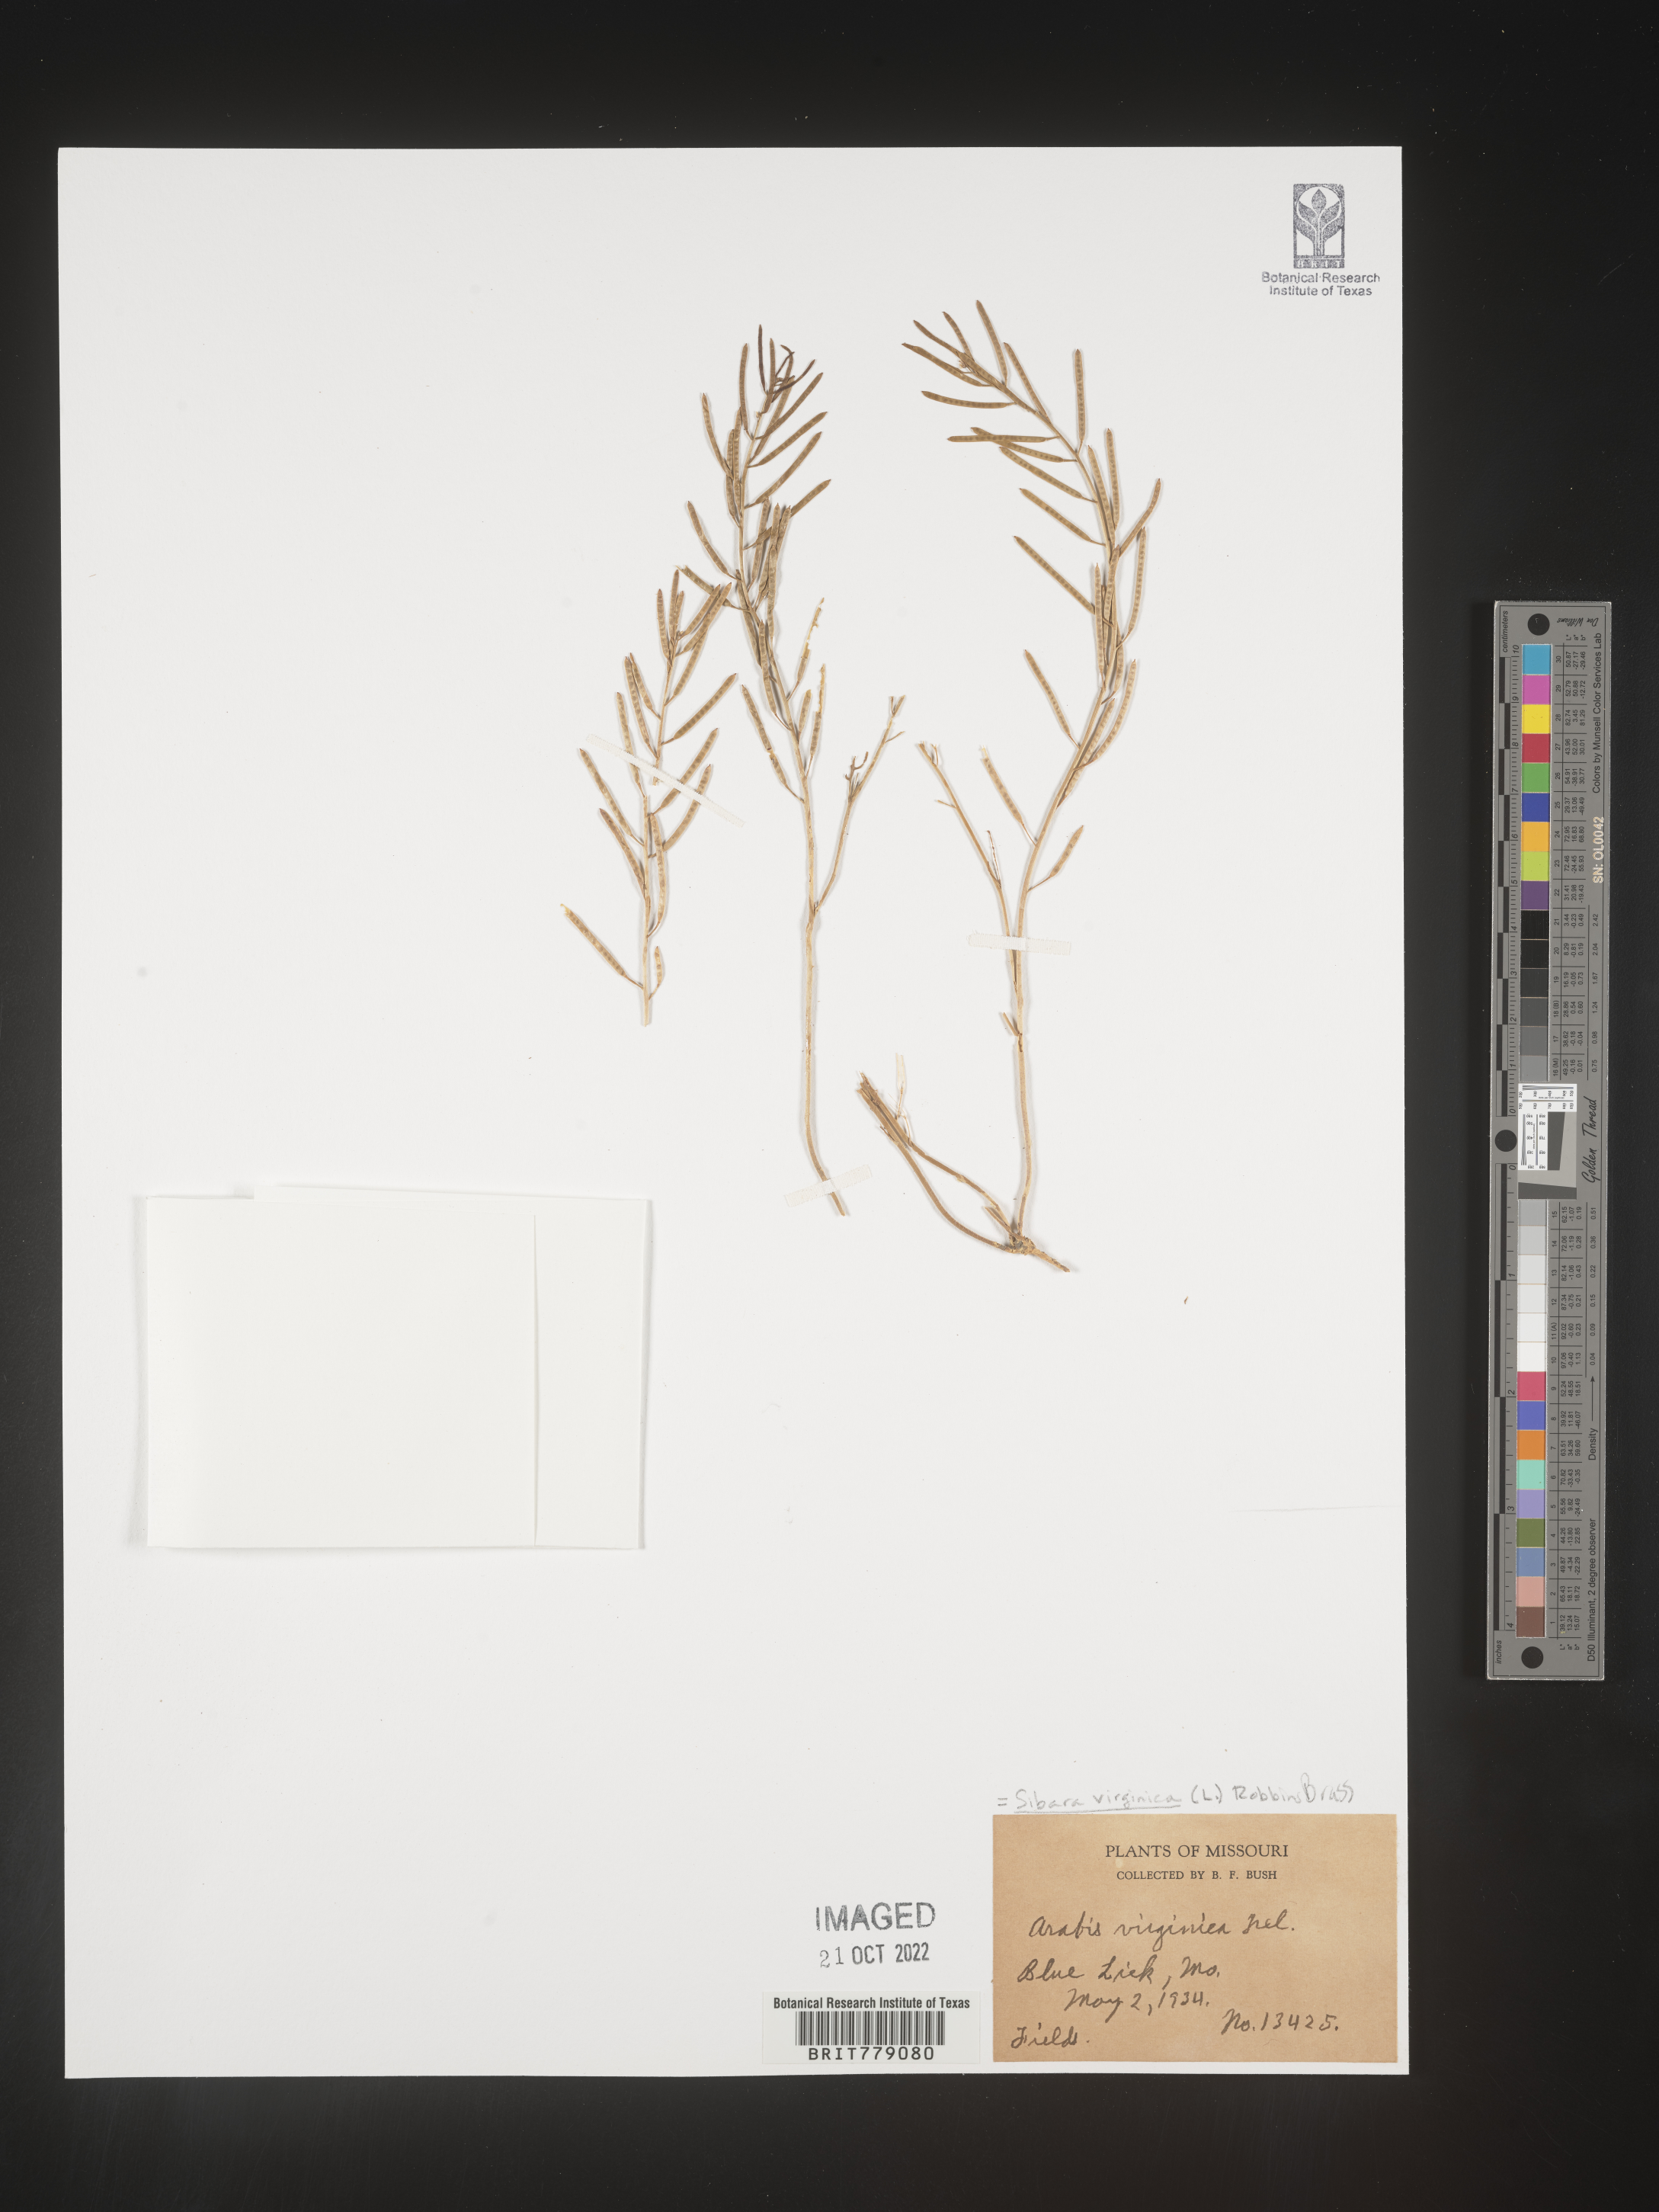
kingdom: Plantae
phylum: Tracheophyta
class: Magnoliopsida
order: Brassicales
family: Brassicaceae
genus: Sibara
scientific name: Sibara
